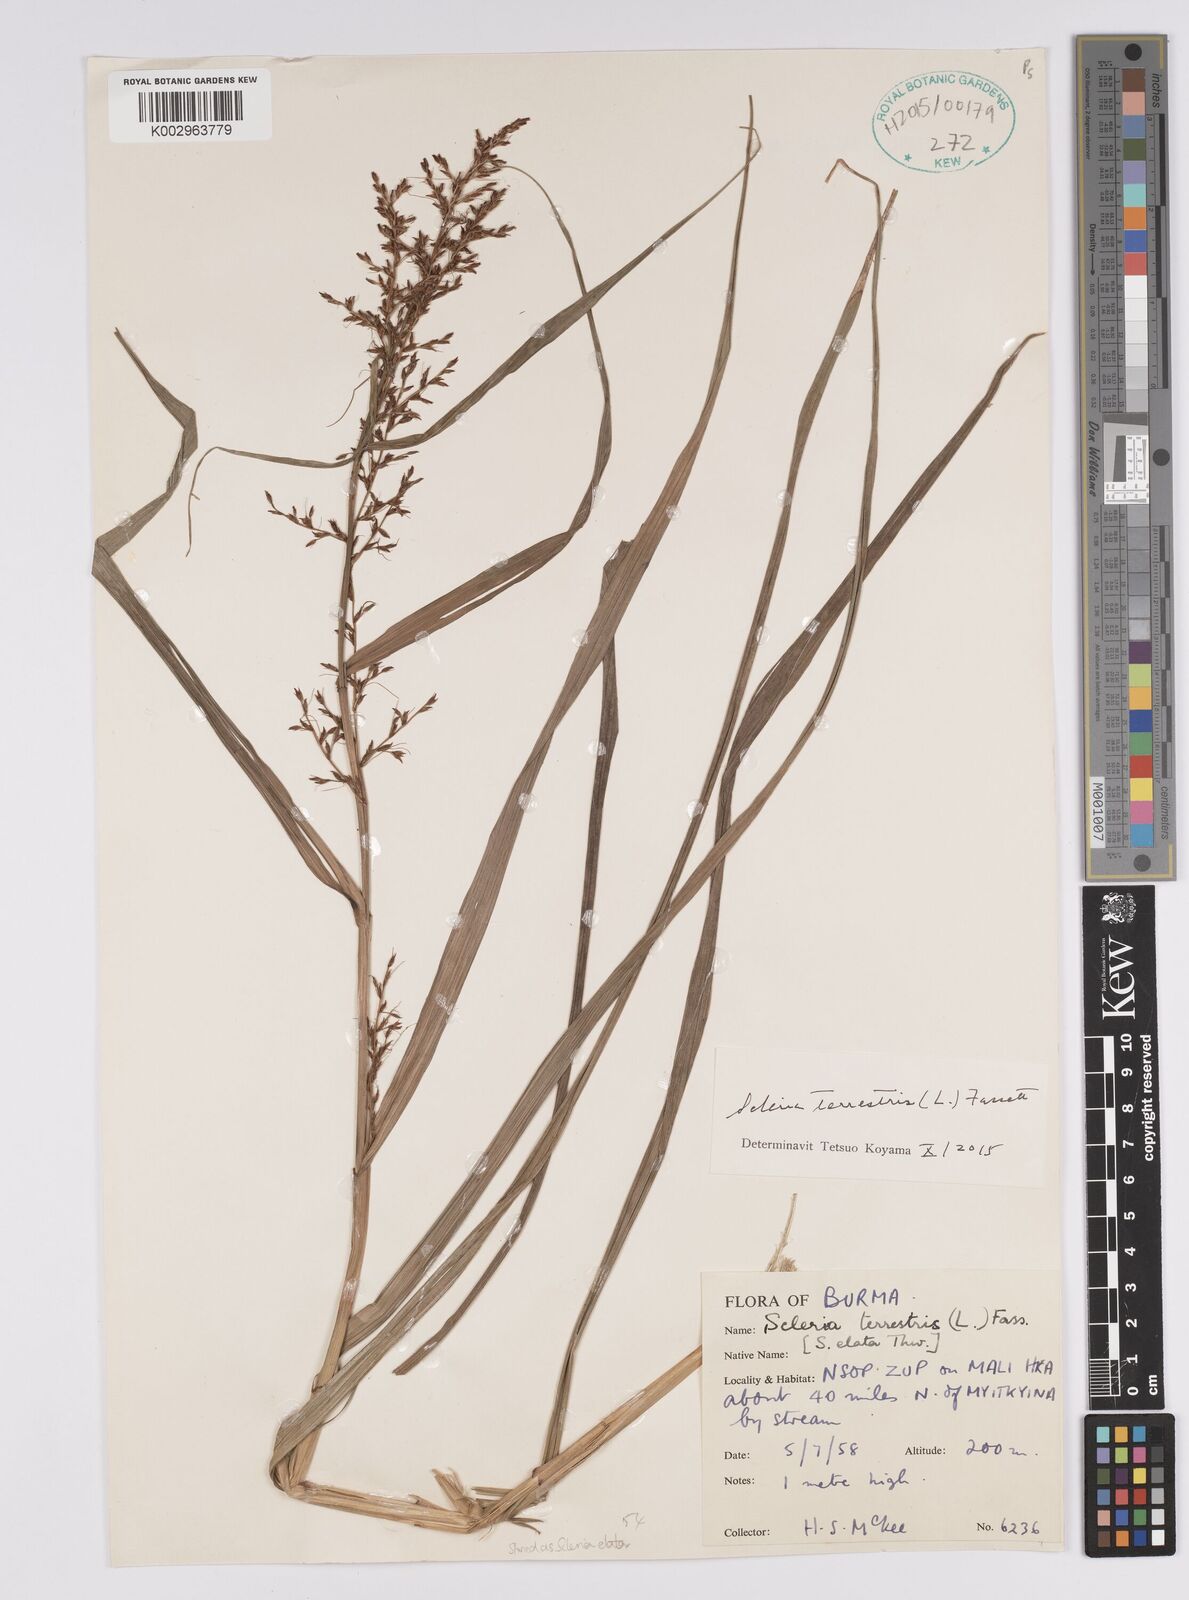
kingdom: Plantae
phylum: Tracheophyta
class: Liliopsida
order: Poales
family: Cyperaceae
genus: Scleria
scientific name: Scleria terrestris
